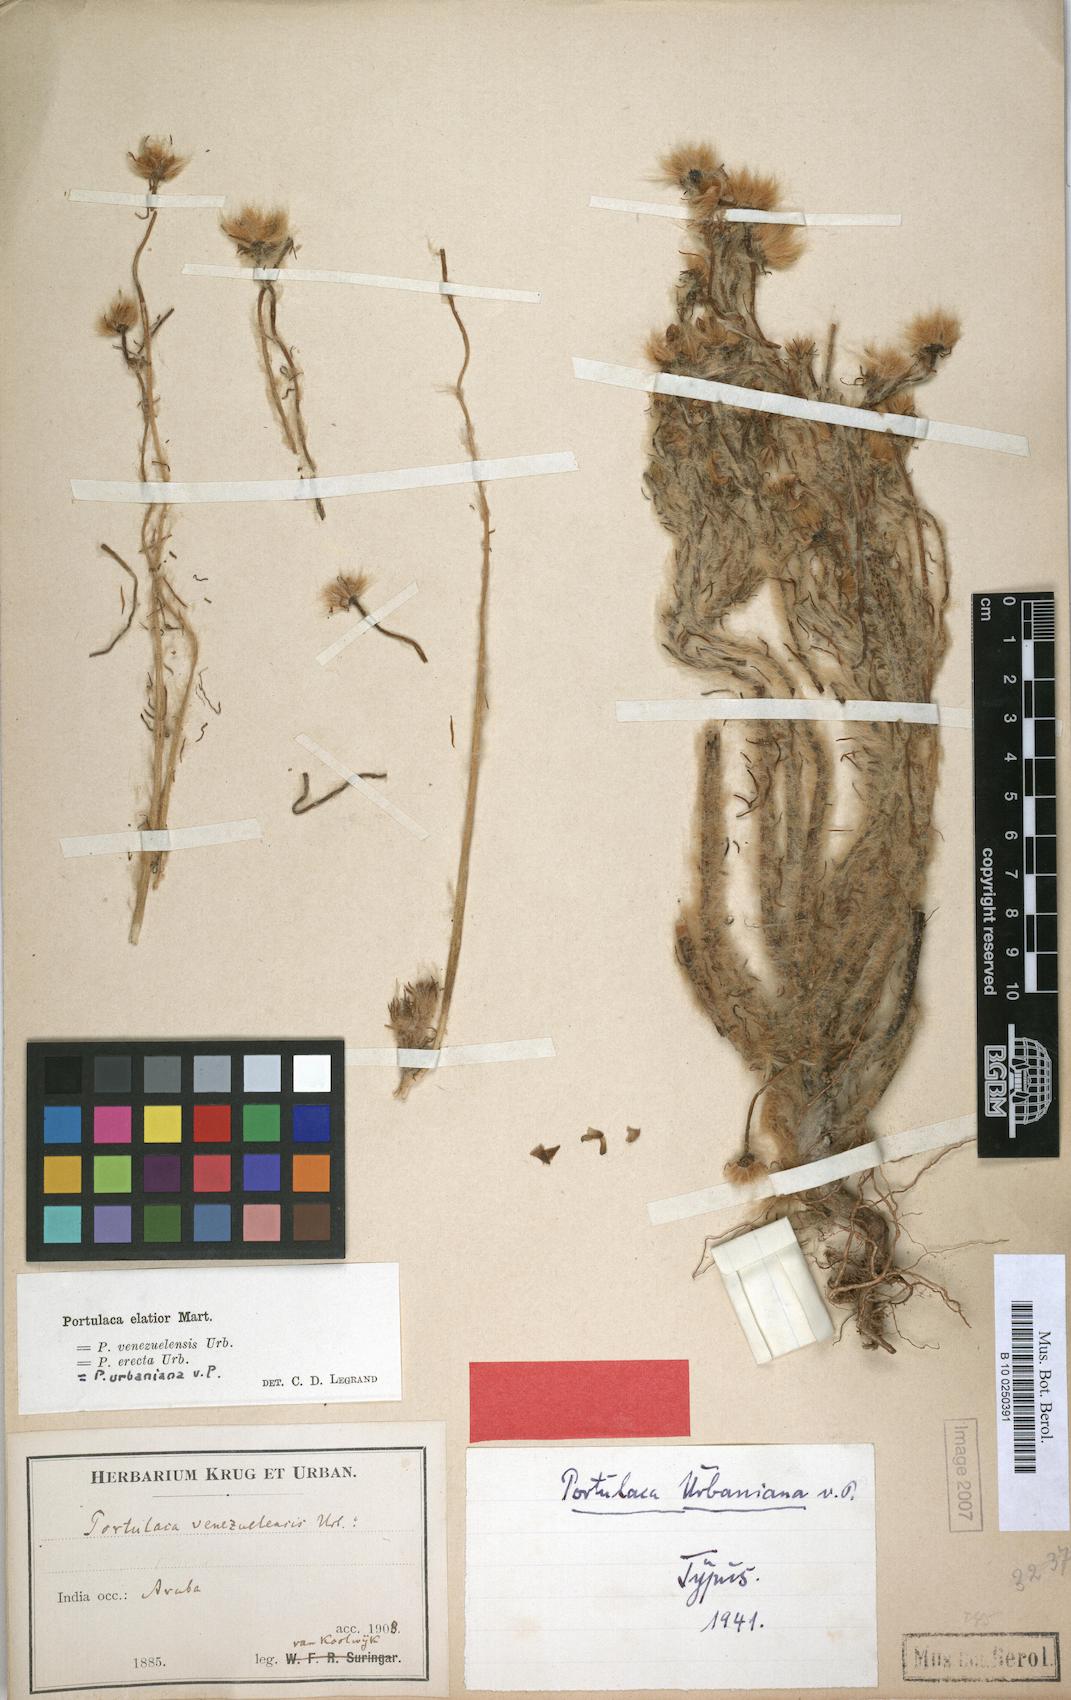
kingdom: Plantae
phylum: Tracheophyta
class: Magnoliopsida
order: Caryophyllales
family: Portulacaceae
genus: Portulaca
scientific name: Portulaca elatior
